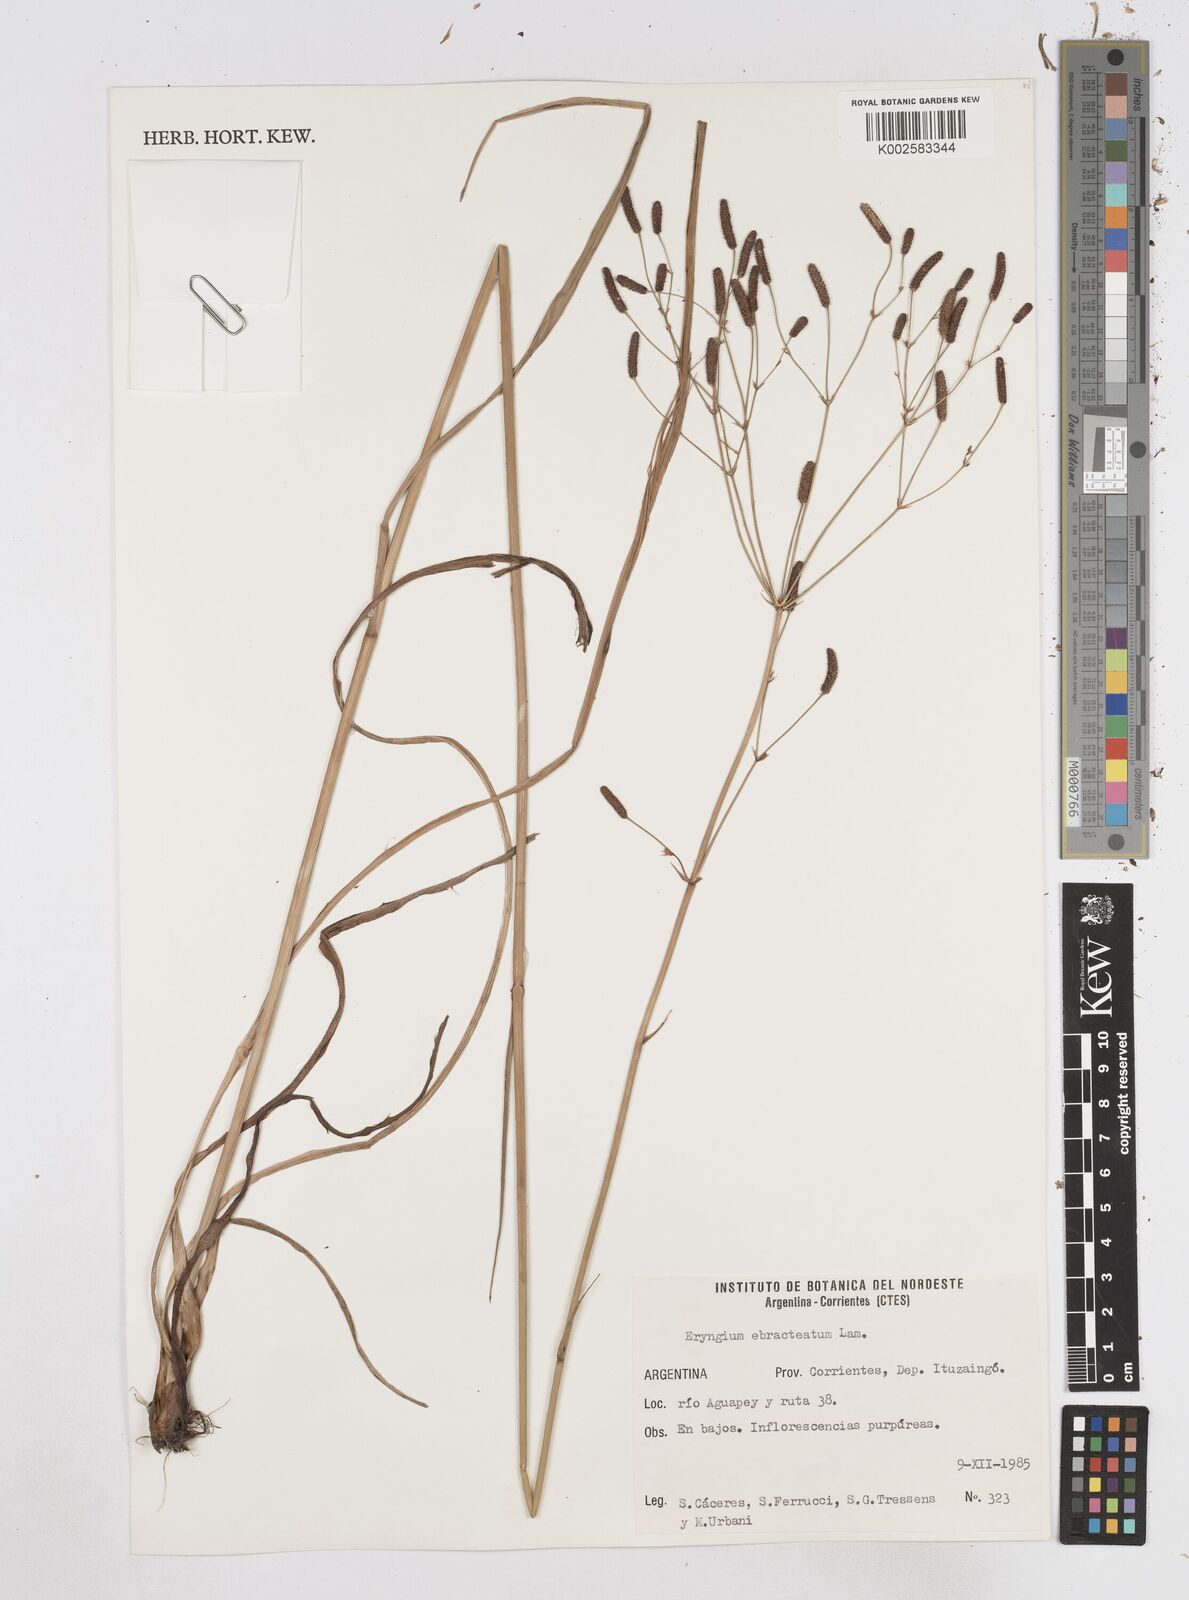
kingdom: Plantae
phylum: Tracheophyta
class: Magnoliopsida
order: Apiales
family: Apiaceae
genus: Eryngium
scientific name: Eryngium ebracteatum
